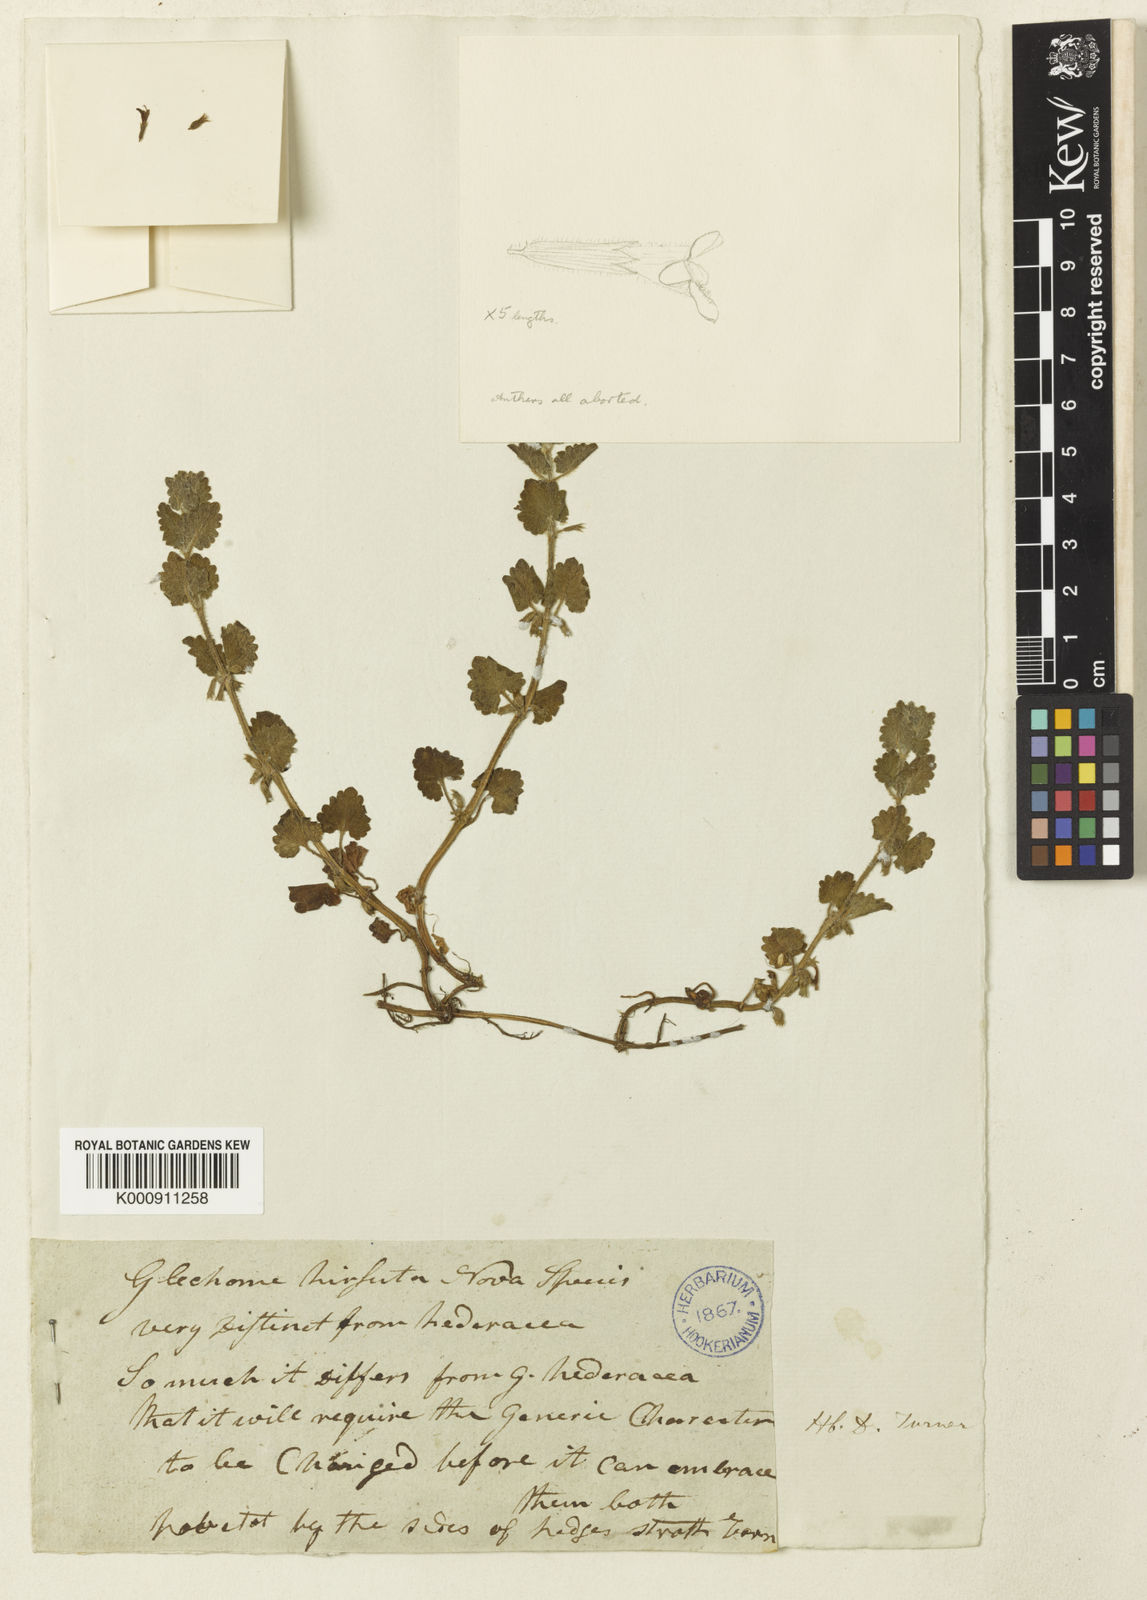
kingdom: Plantae
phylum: Tracheophyta
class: Magnoliopsida
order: Lamiales
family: Lamiaceae
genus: Glechoma
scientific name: Glechoma hederacea
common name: Ground ivy
